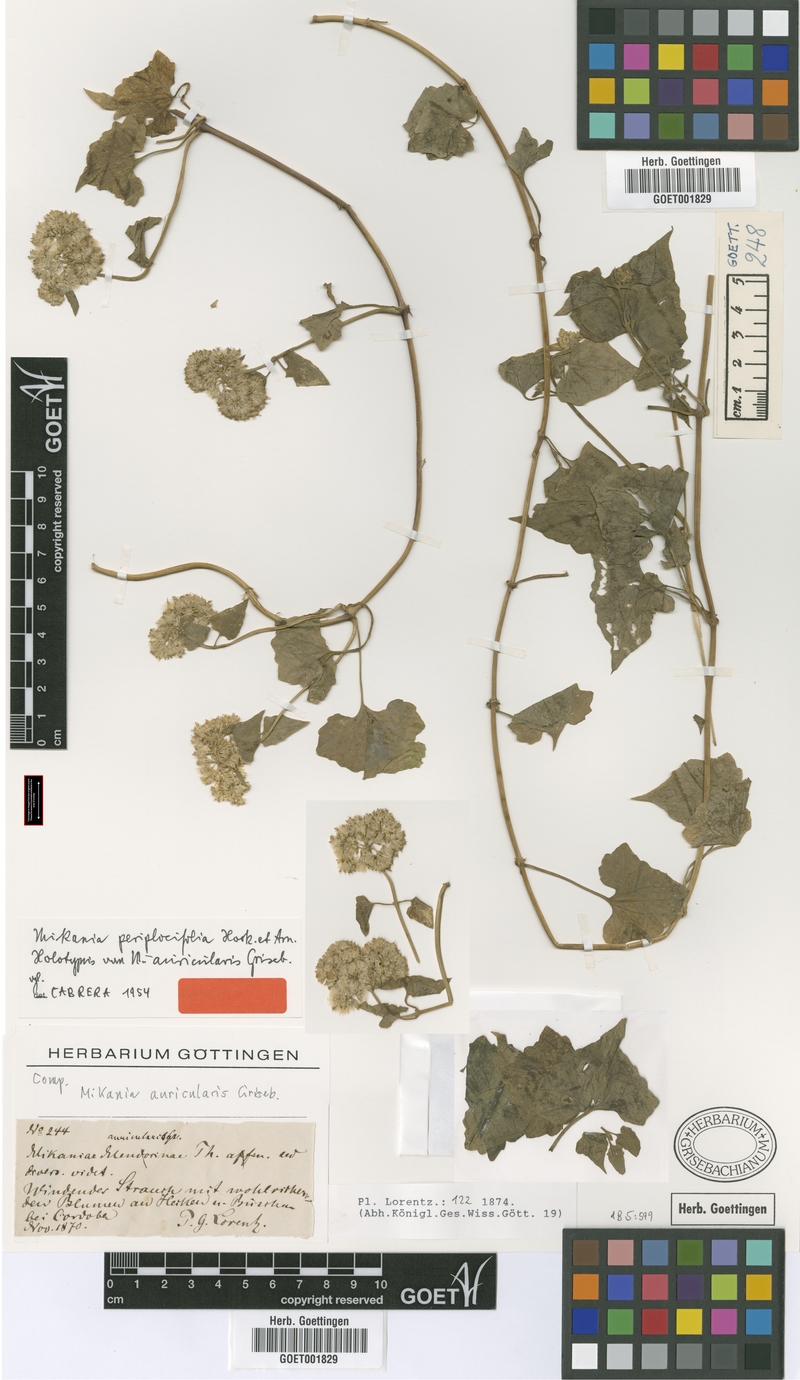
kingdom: Plantae
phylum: Tracheophyta
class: Magnoliopsida
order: Asterales
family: Asteraceae
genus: Mikania
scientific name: Mikania periplocifolia
